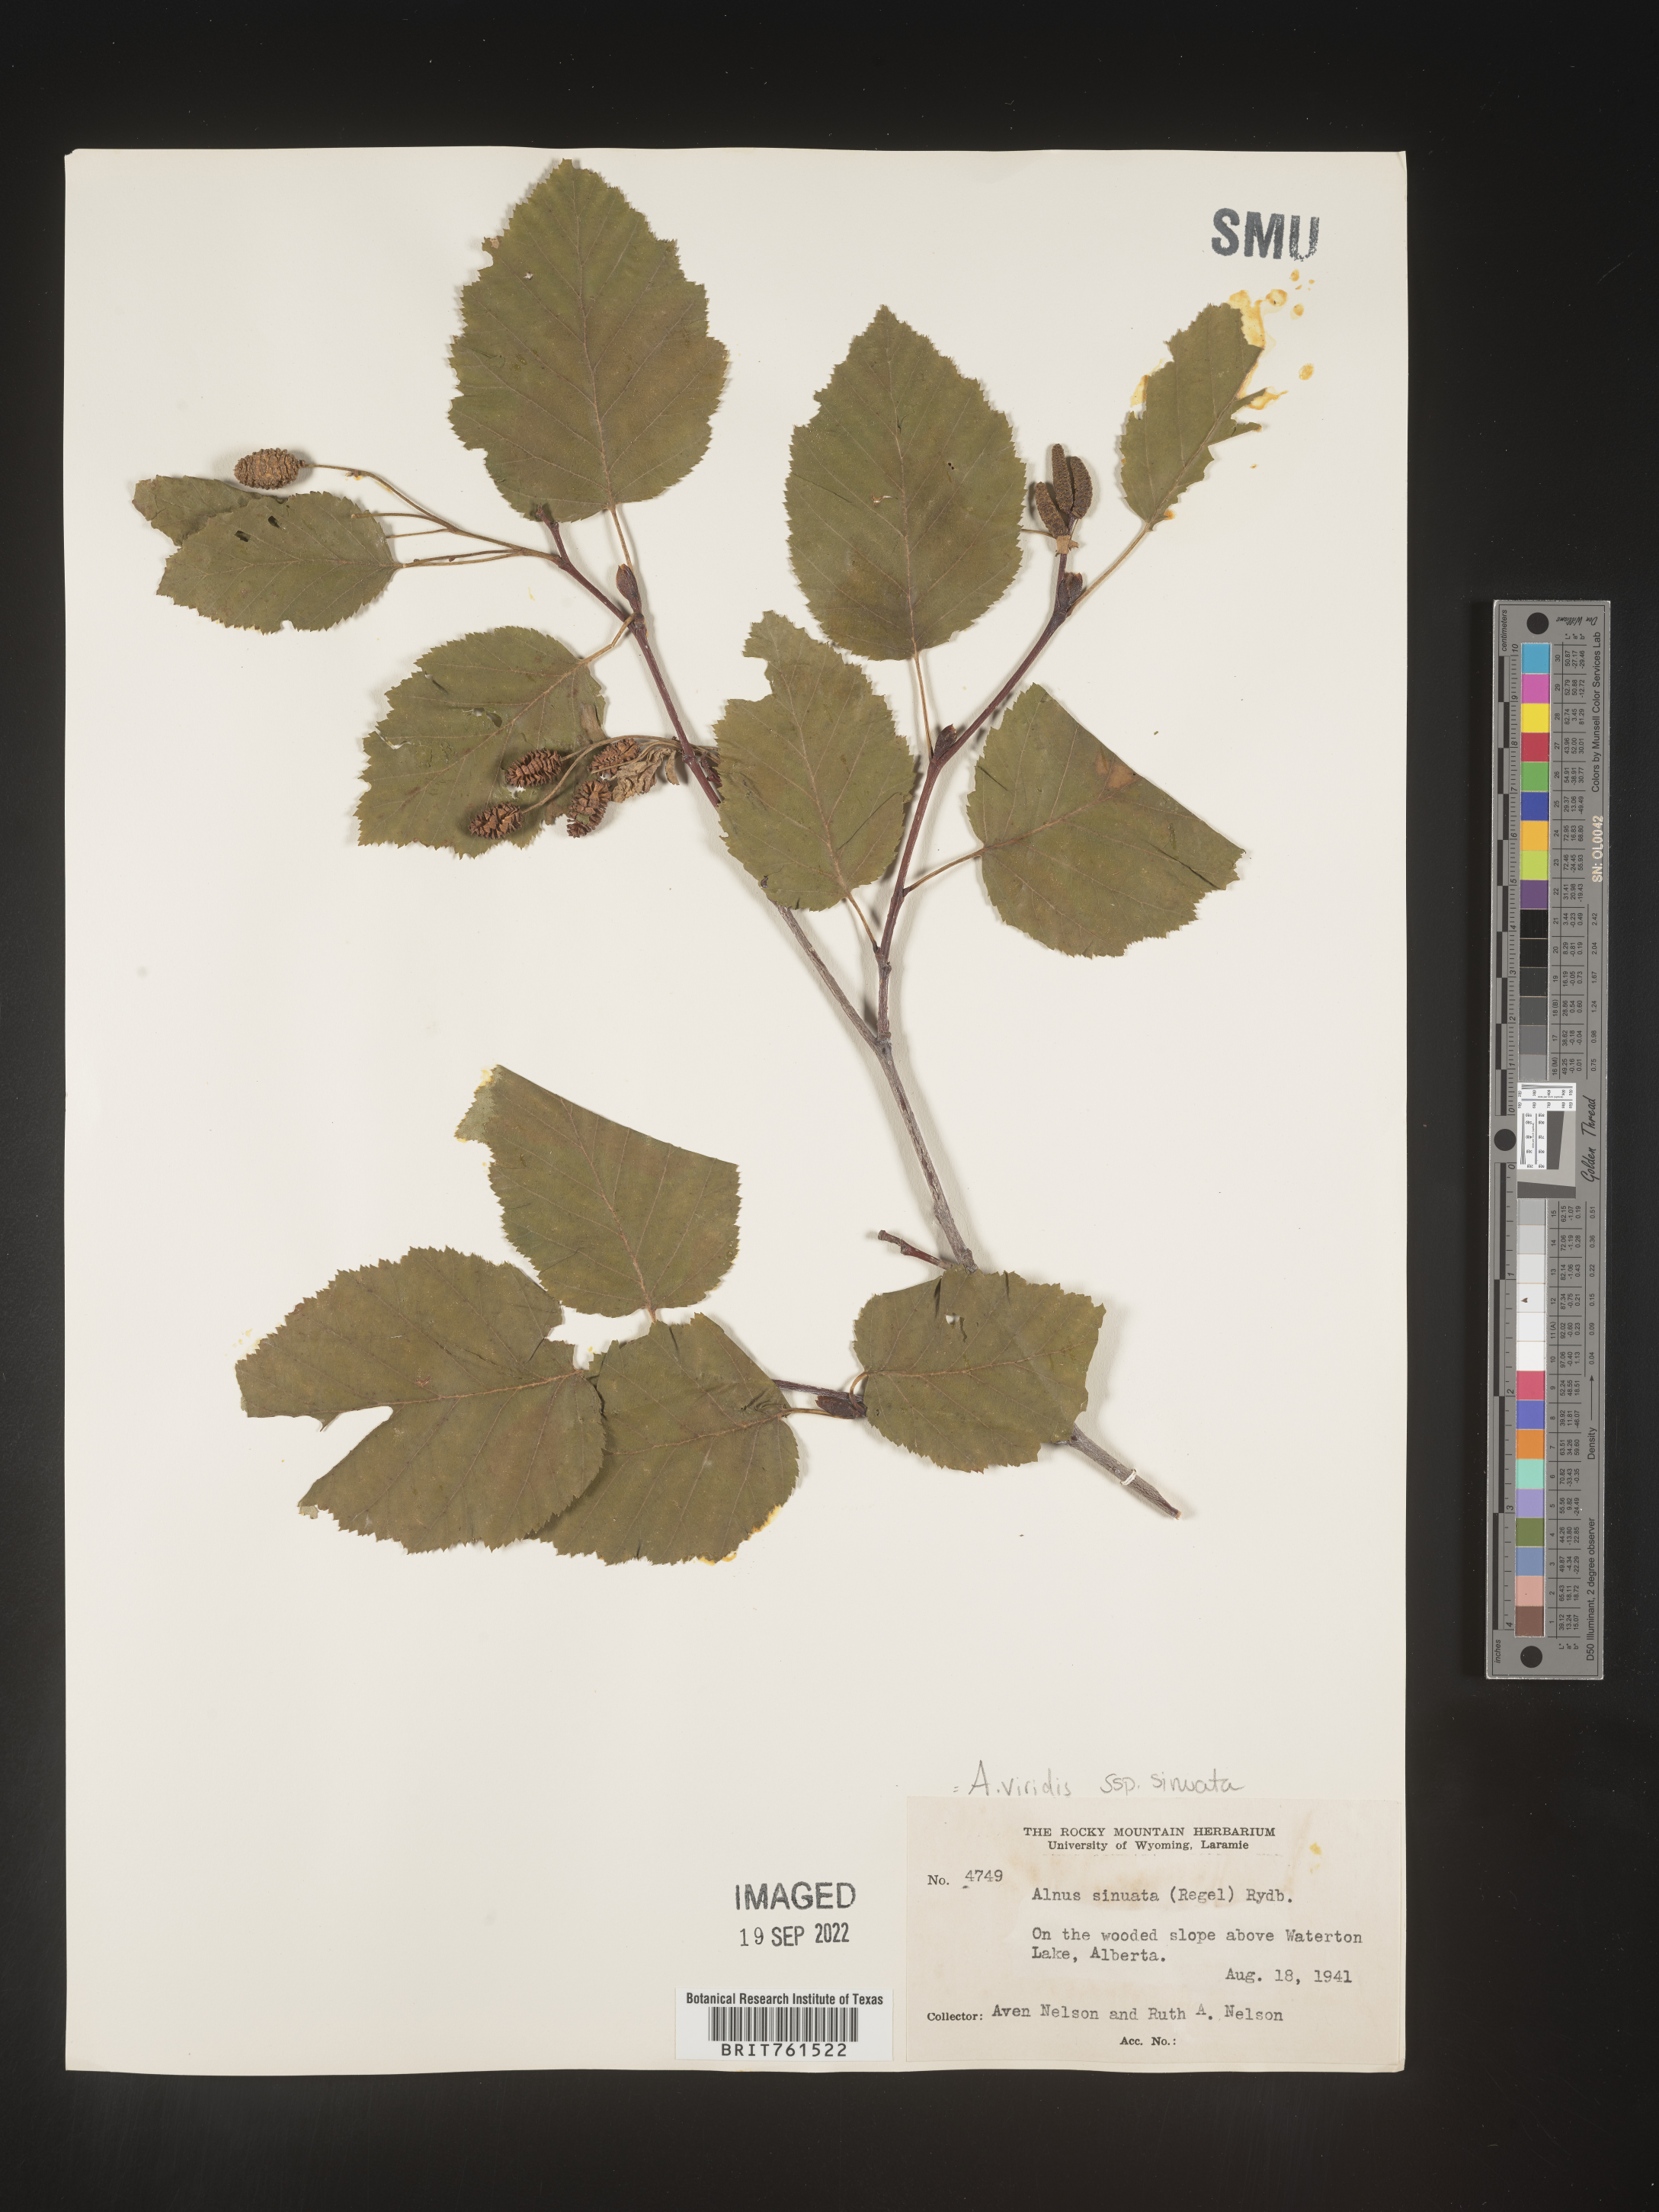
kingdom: Plantae
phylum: Tracheophyta
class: Magnoliopsida
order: Fagales
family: Betulaceae
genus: Alnus
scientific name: Alnus alnobetula
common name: Green alder
